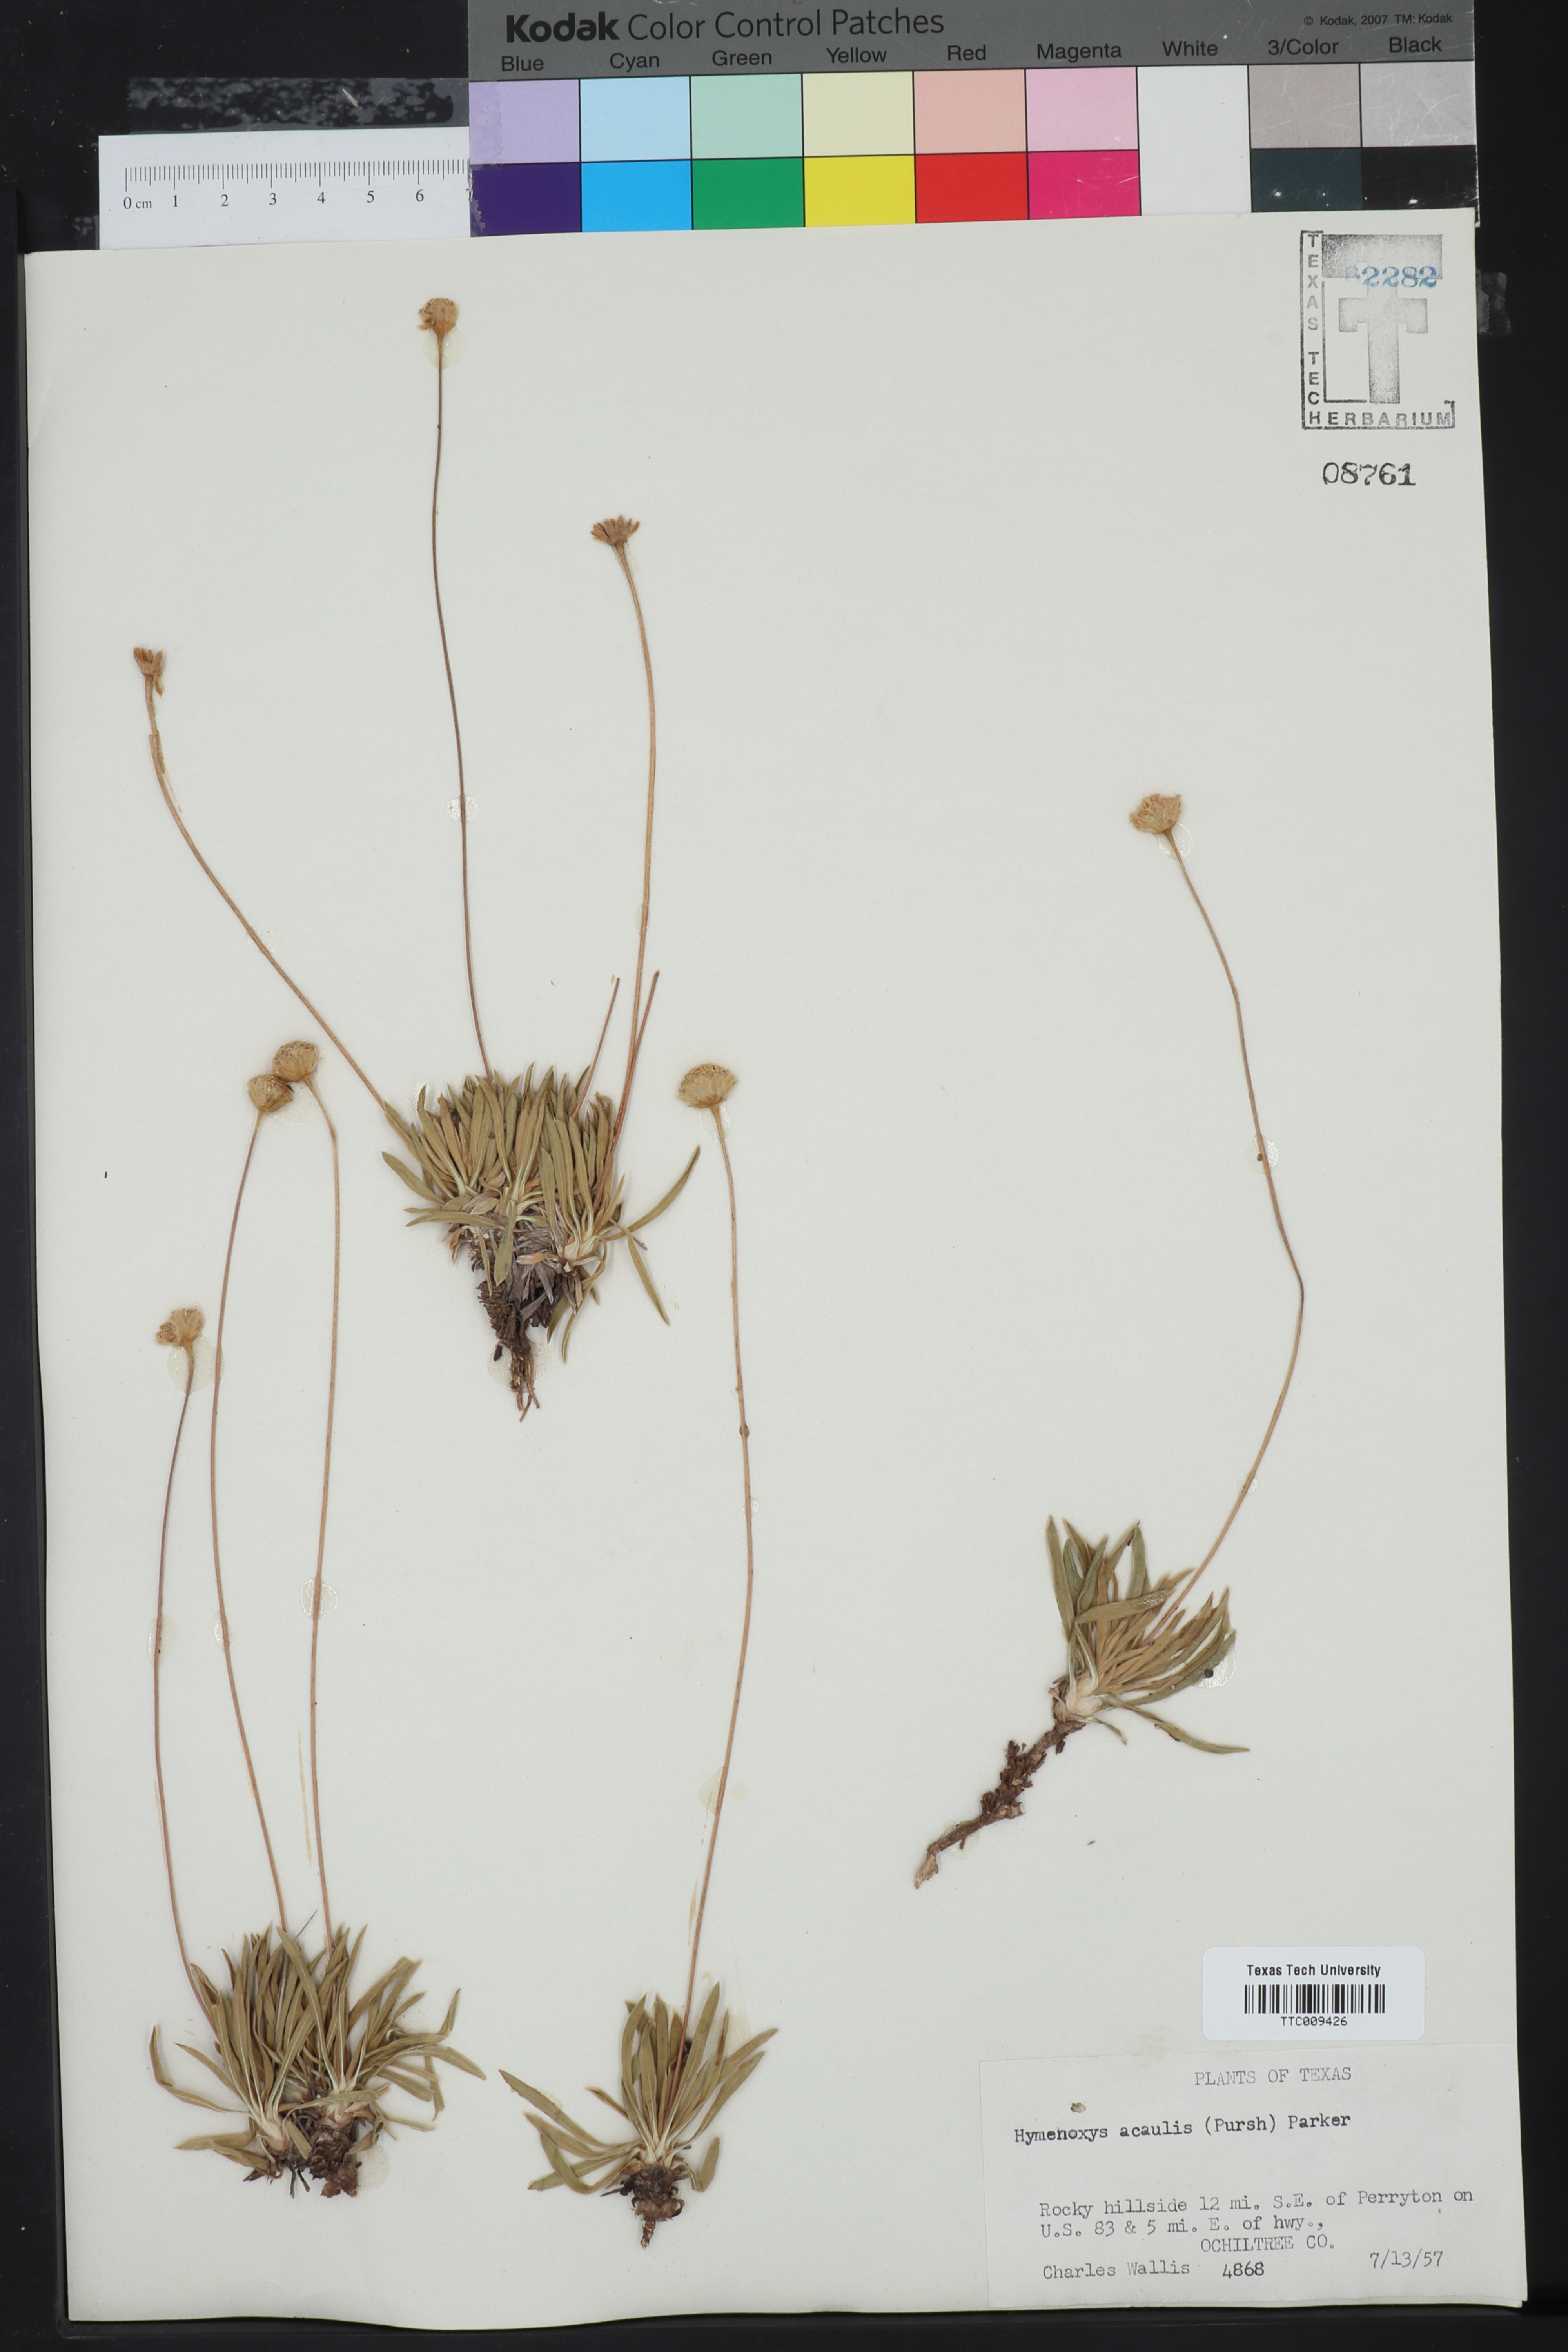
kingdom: Plantae
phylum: Tracheophyta
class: Magnoliopsida
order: Asterales
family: Asteraceae
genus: Tetraneuris
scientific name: Tetraneuris acaulis
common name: Butte marigold
